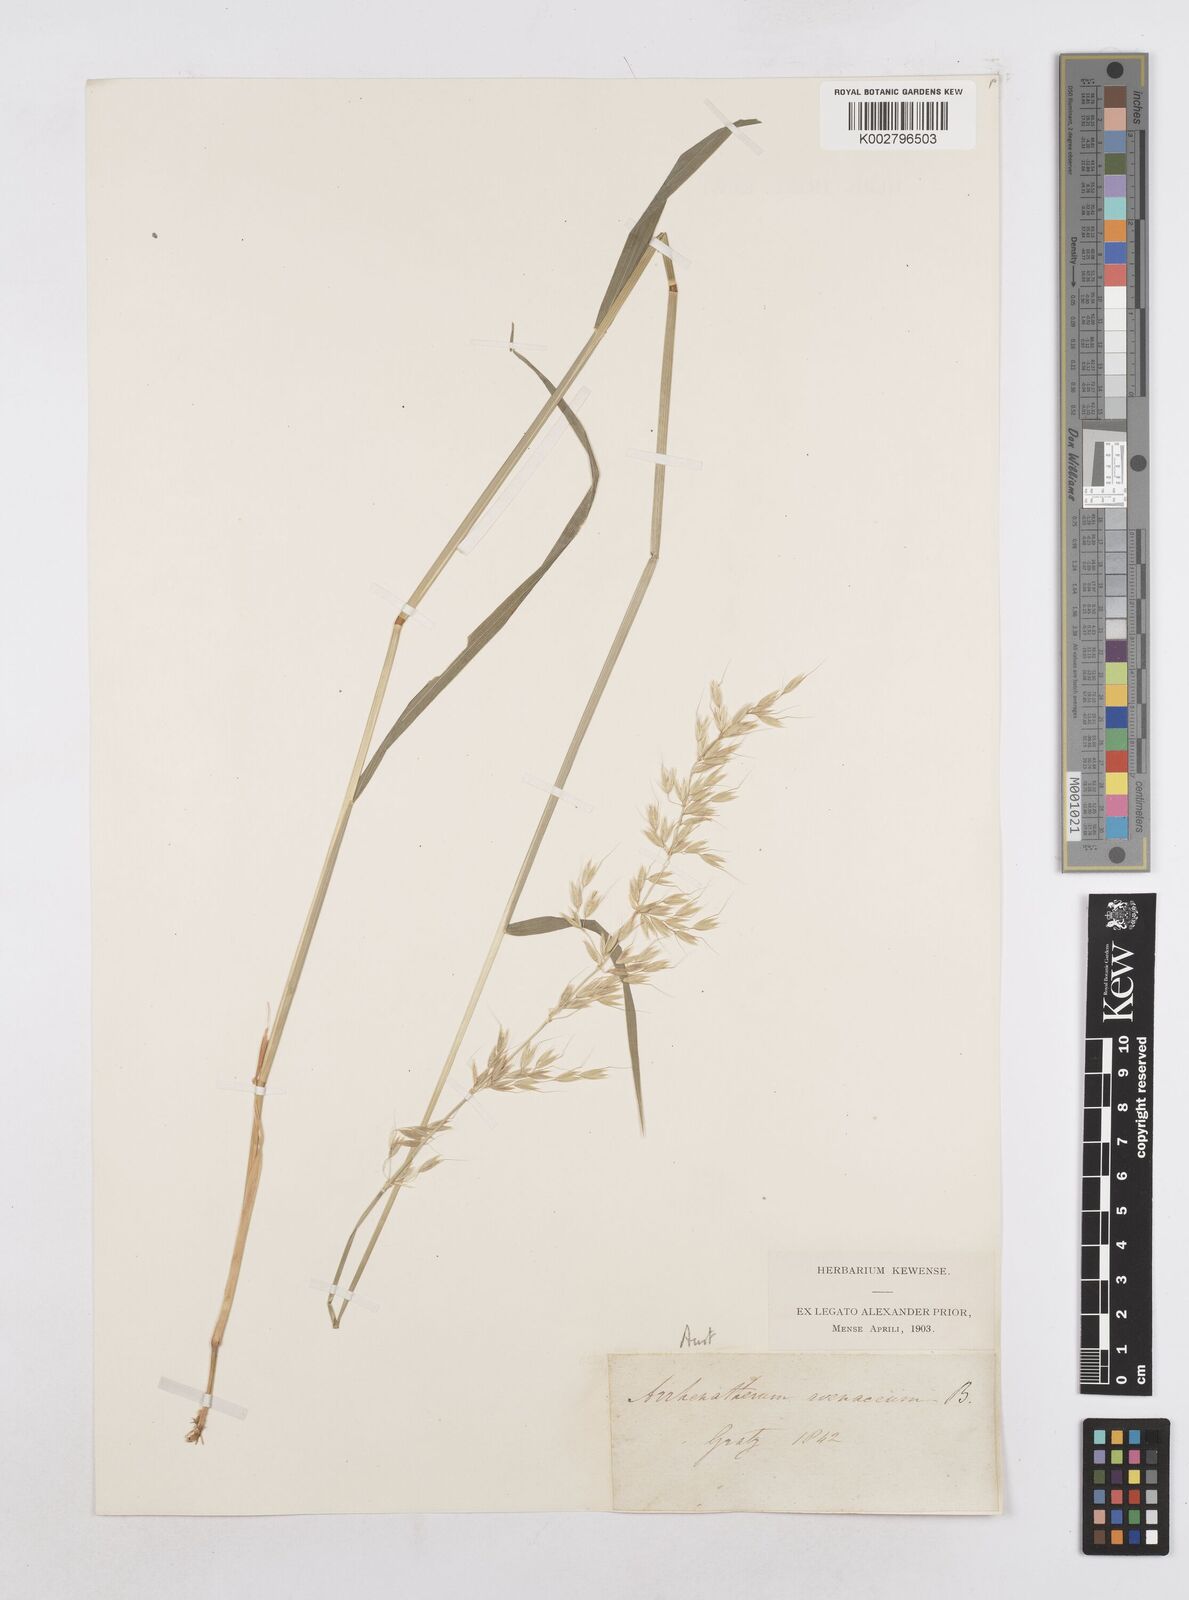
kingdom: Plantae
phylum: Tracheophyta
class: Liliopsida
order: Poales
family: Poaceae
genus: Arrhenatherum
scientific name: Arrhenatherum elatius
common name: Tall oatgrass
